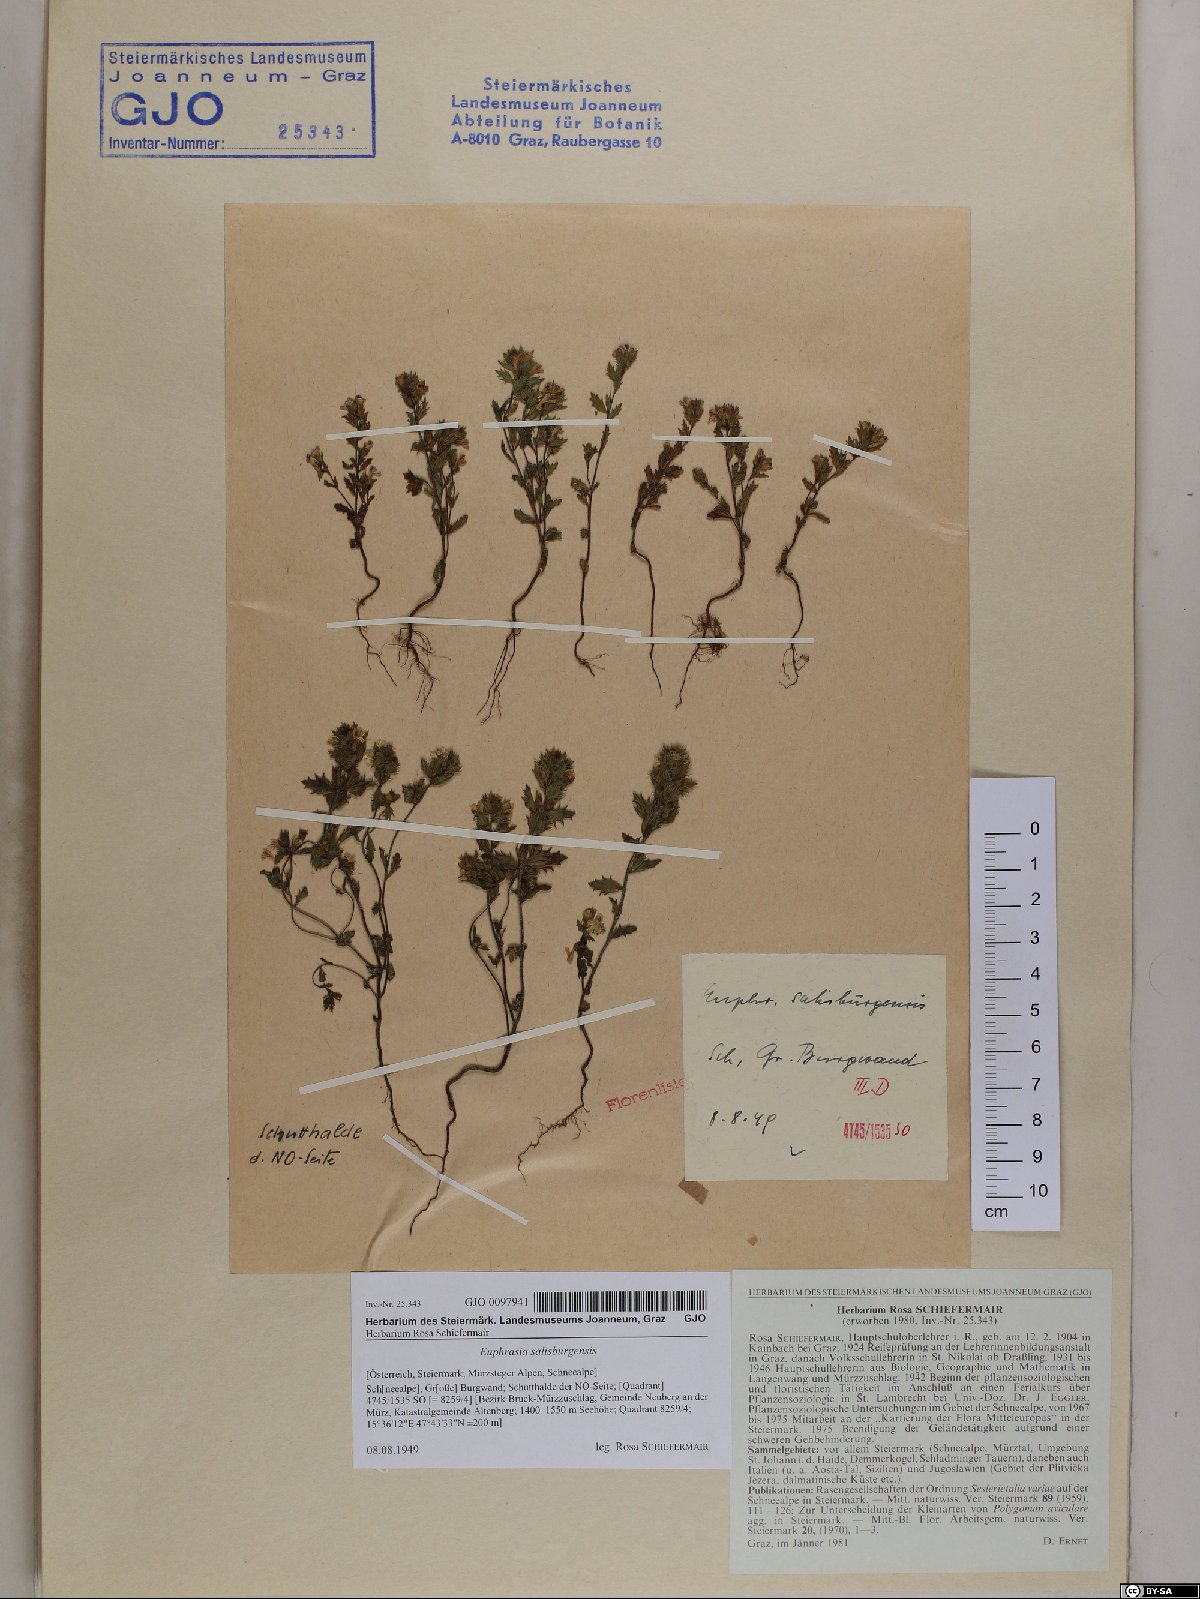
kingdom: Plantae
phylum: Tracheophyta
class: Magnoliopsida
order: Lamiales
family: Orobanchaceae
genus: Euphrasia
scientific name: Euphrasia salisburgensis
